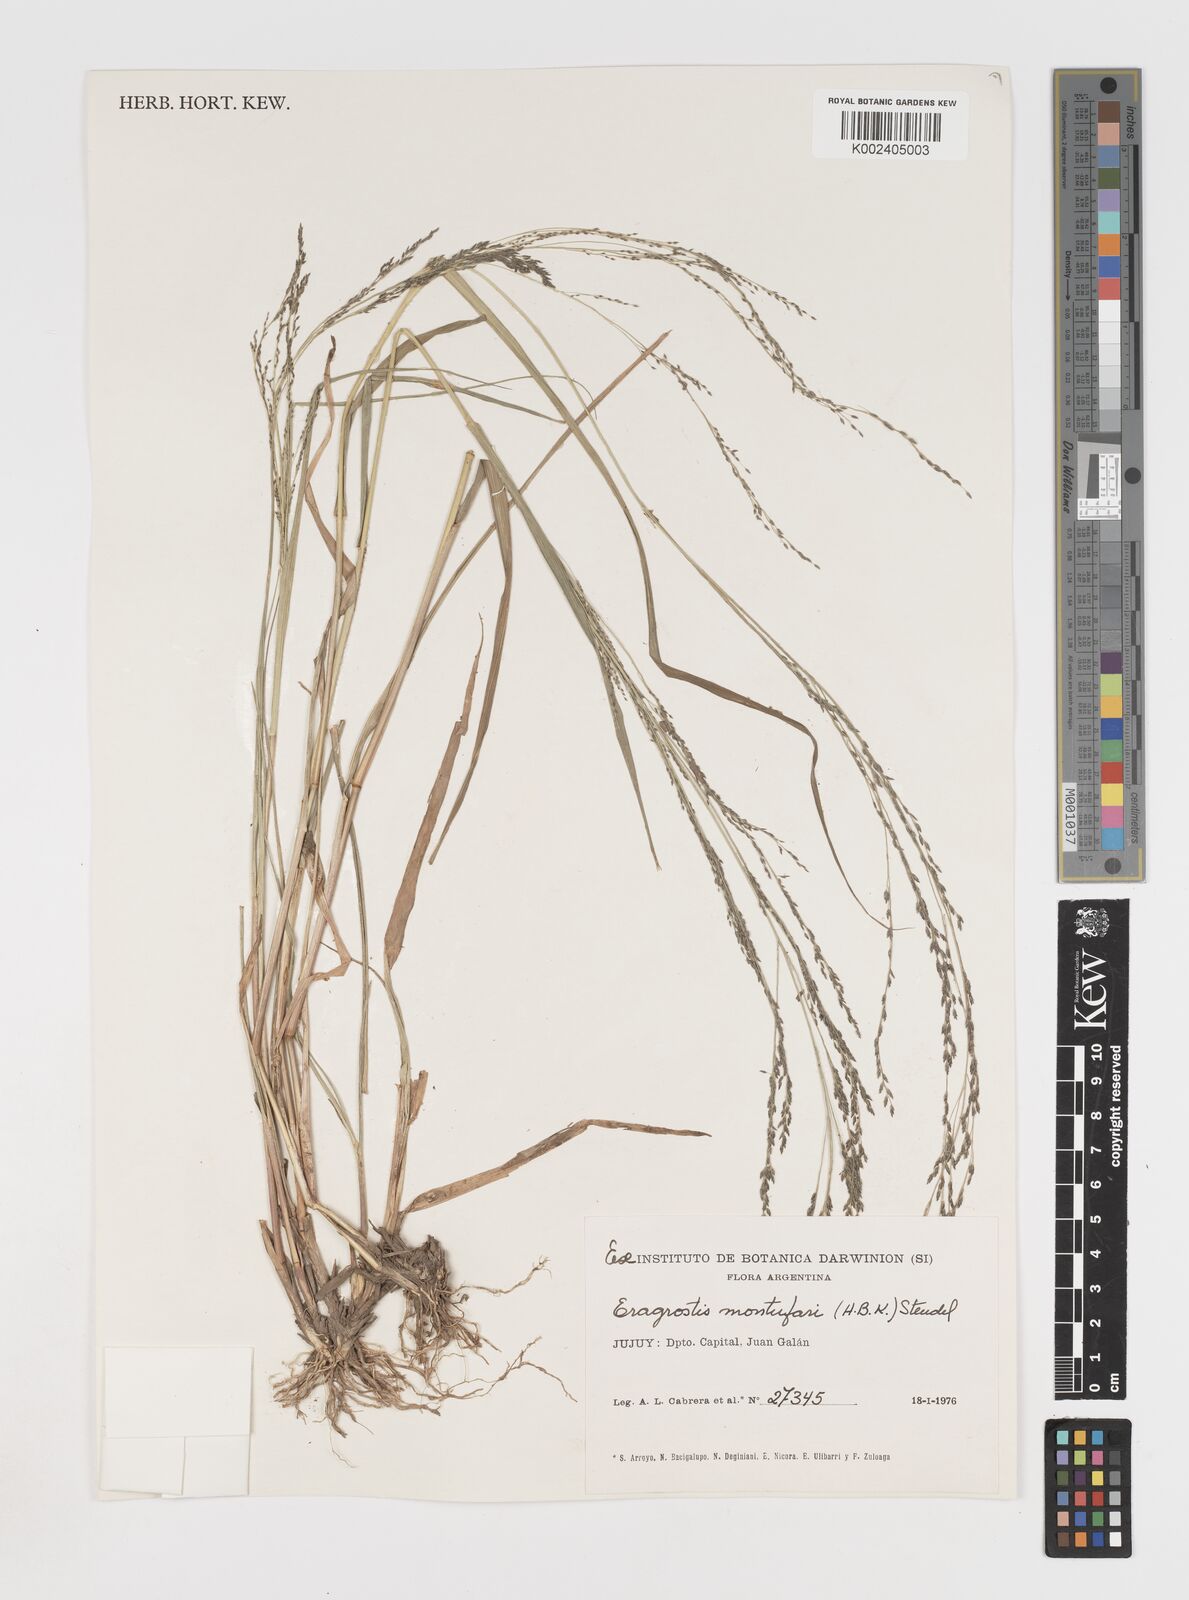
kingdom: Plantae
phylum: Tracheophyta
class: Liliopsida
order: Poales
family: Poaceae
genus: Eragrostis
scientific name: Eragrostis pastoensis
